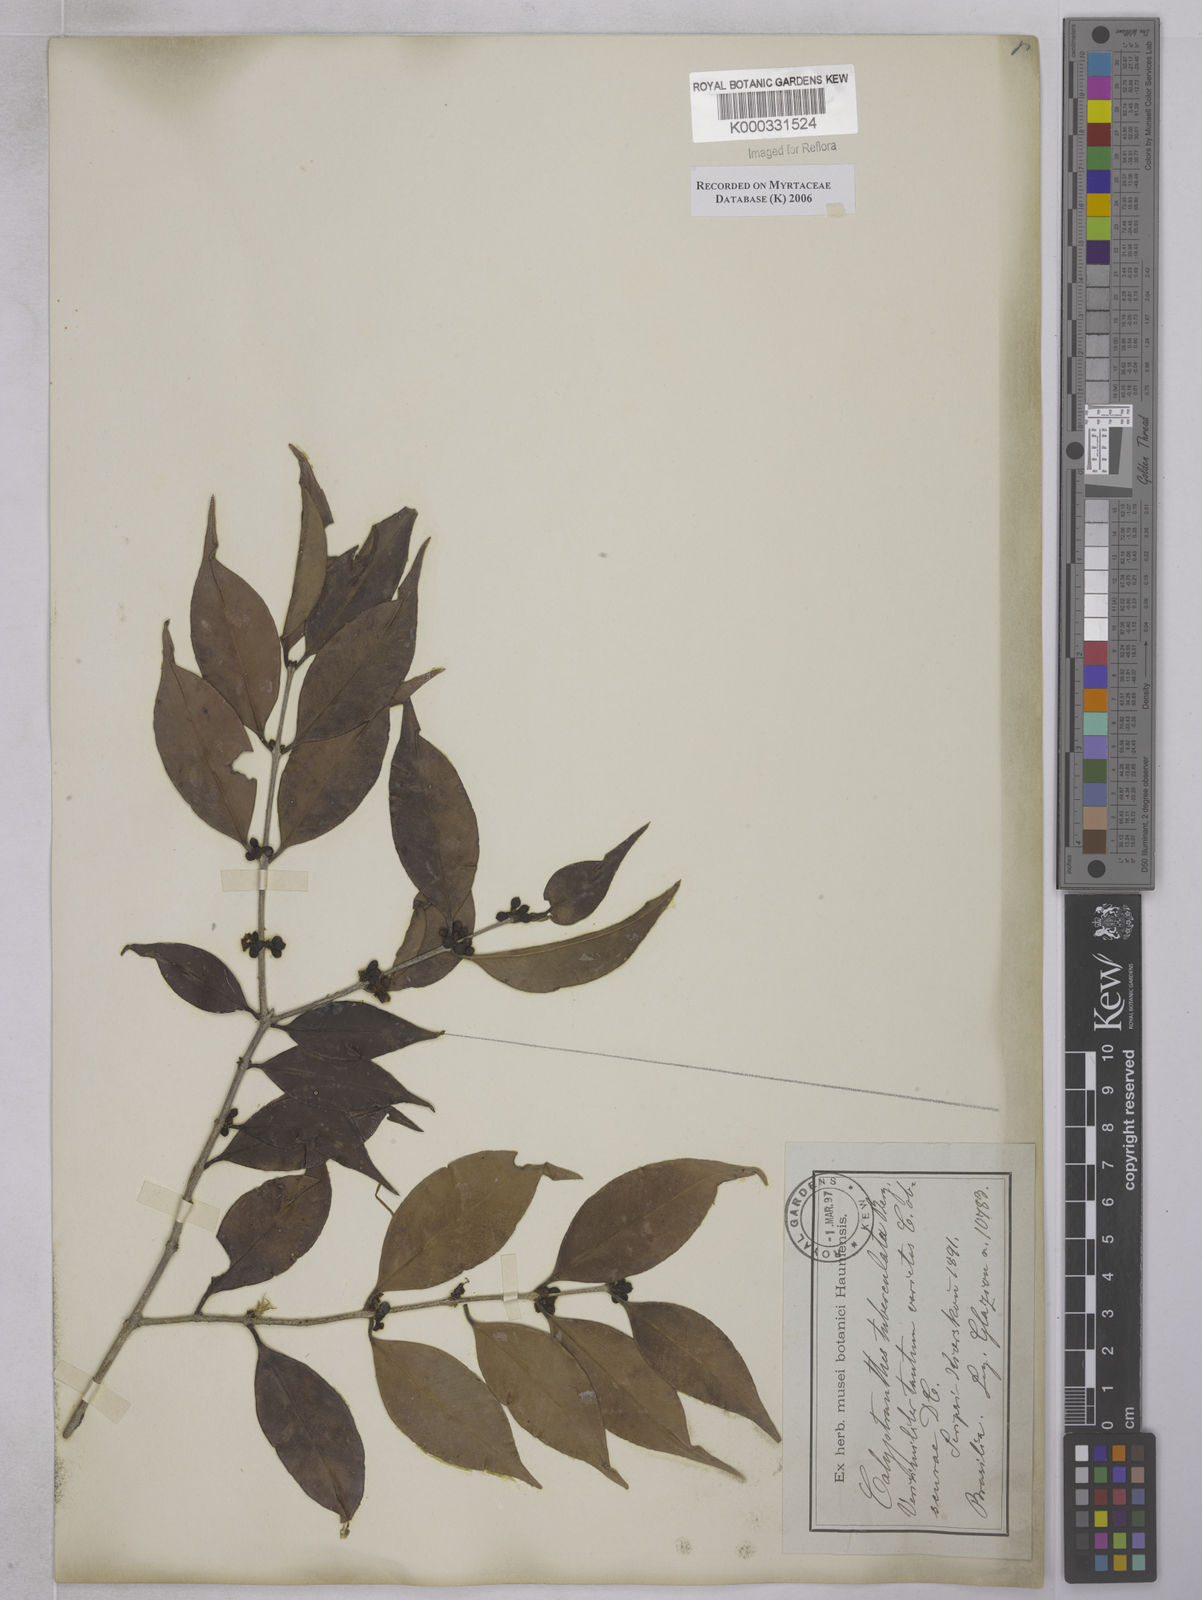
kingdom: Plantae
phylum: Tracheophyta
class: Magnoliopsida
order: Myrtales
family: Myrtaceae
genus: Neomitranthes
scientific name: Neomitranthes obscura
